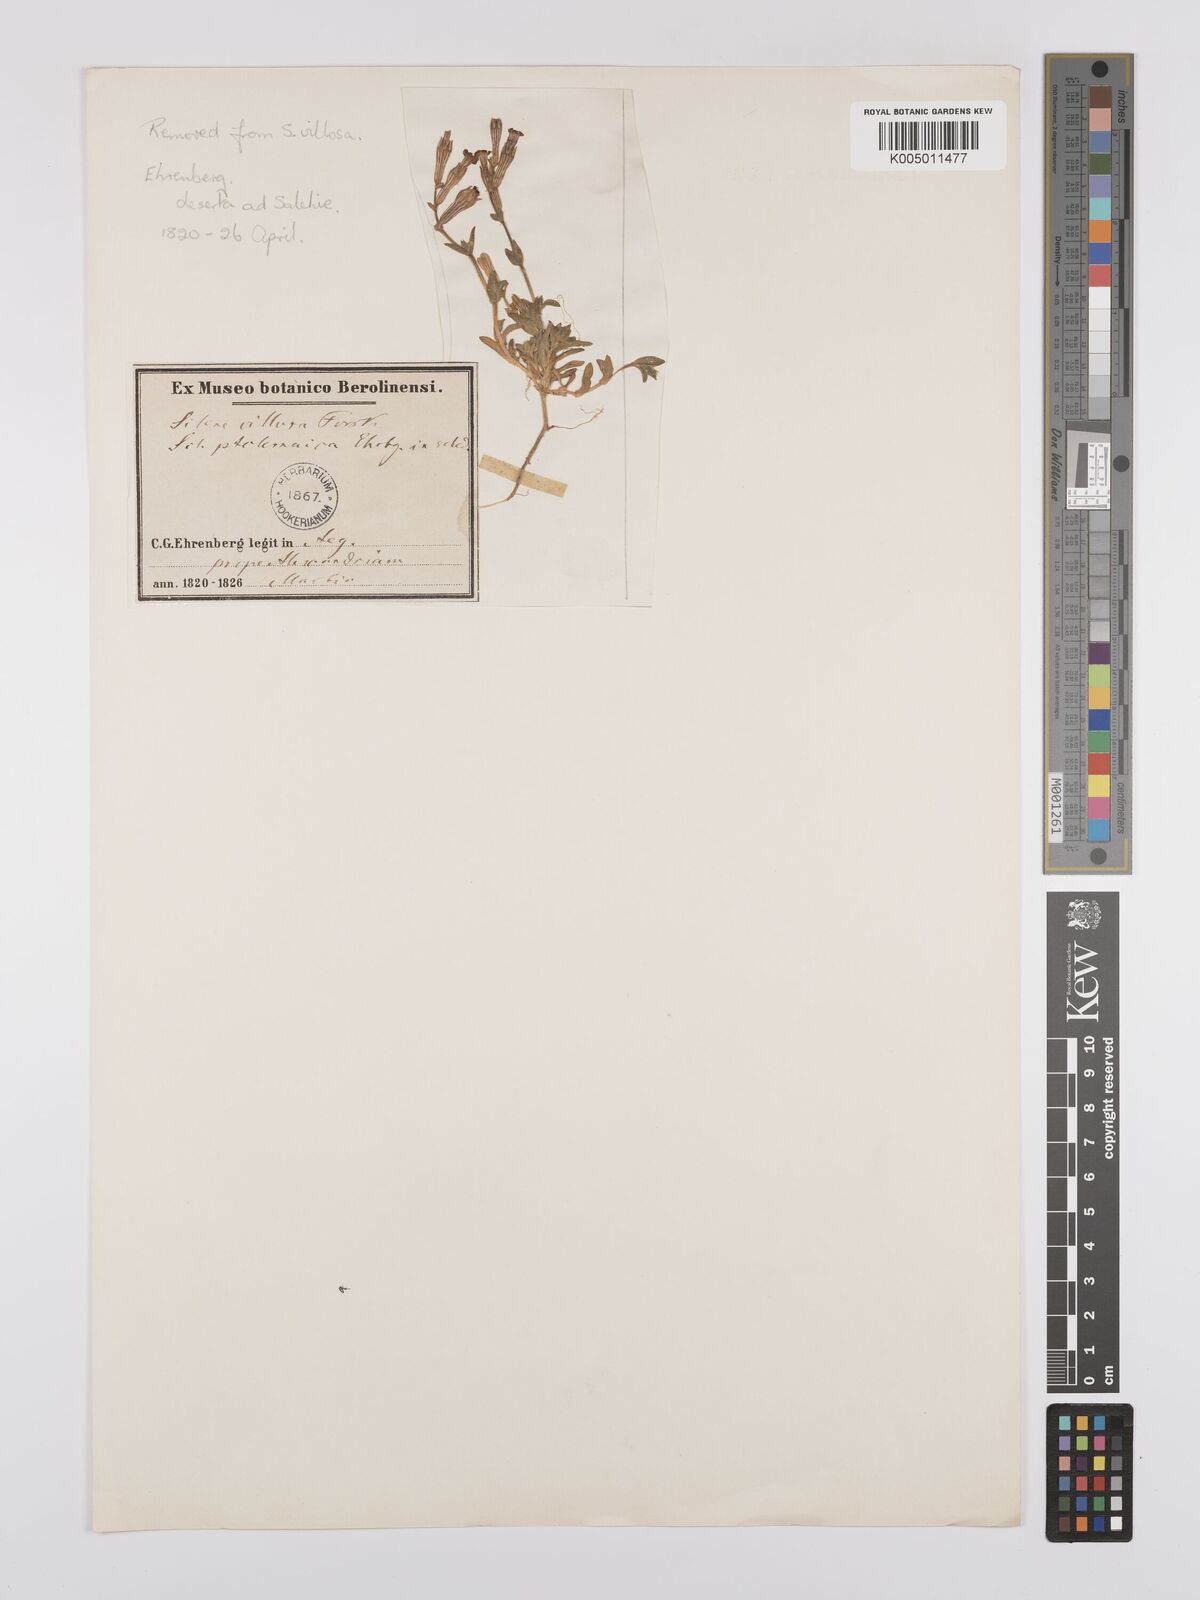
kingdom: Plantae
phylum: Tracheophyta
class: Magnoliopsida
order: Caryophyllales
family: Caryophyllaceae
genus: Silene
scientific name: Silene biappendiculata
